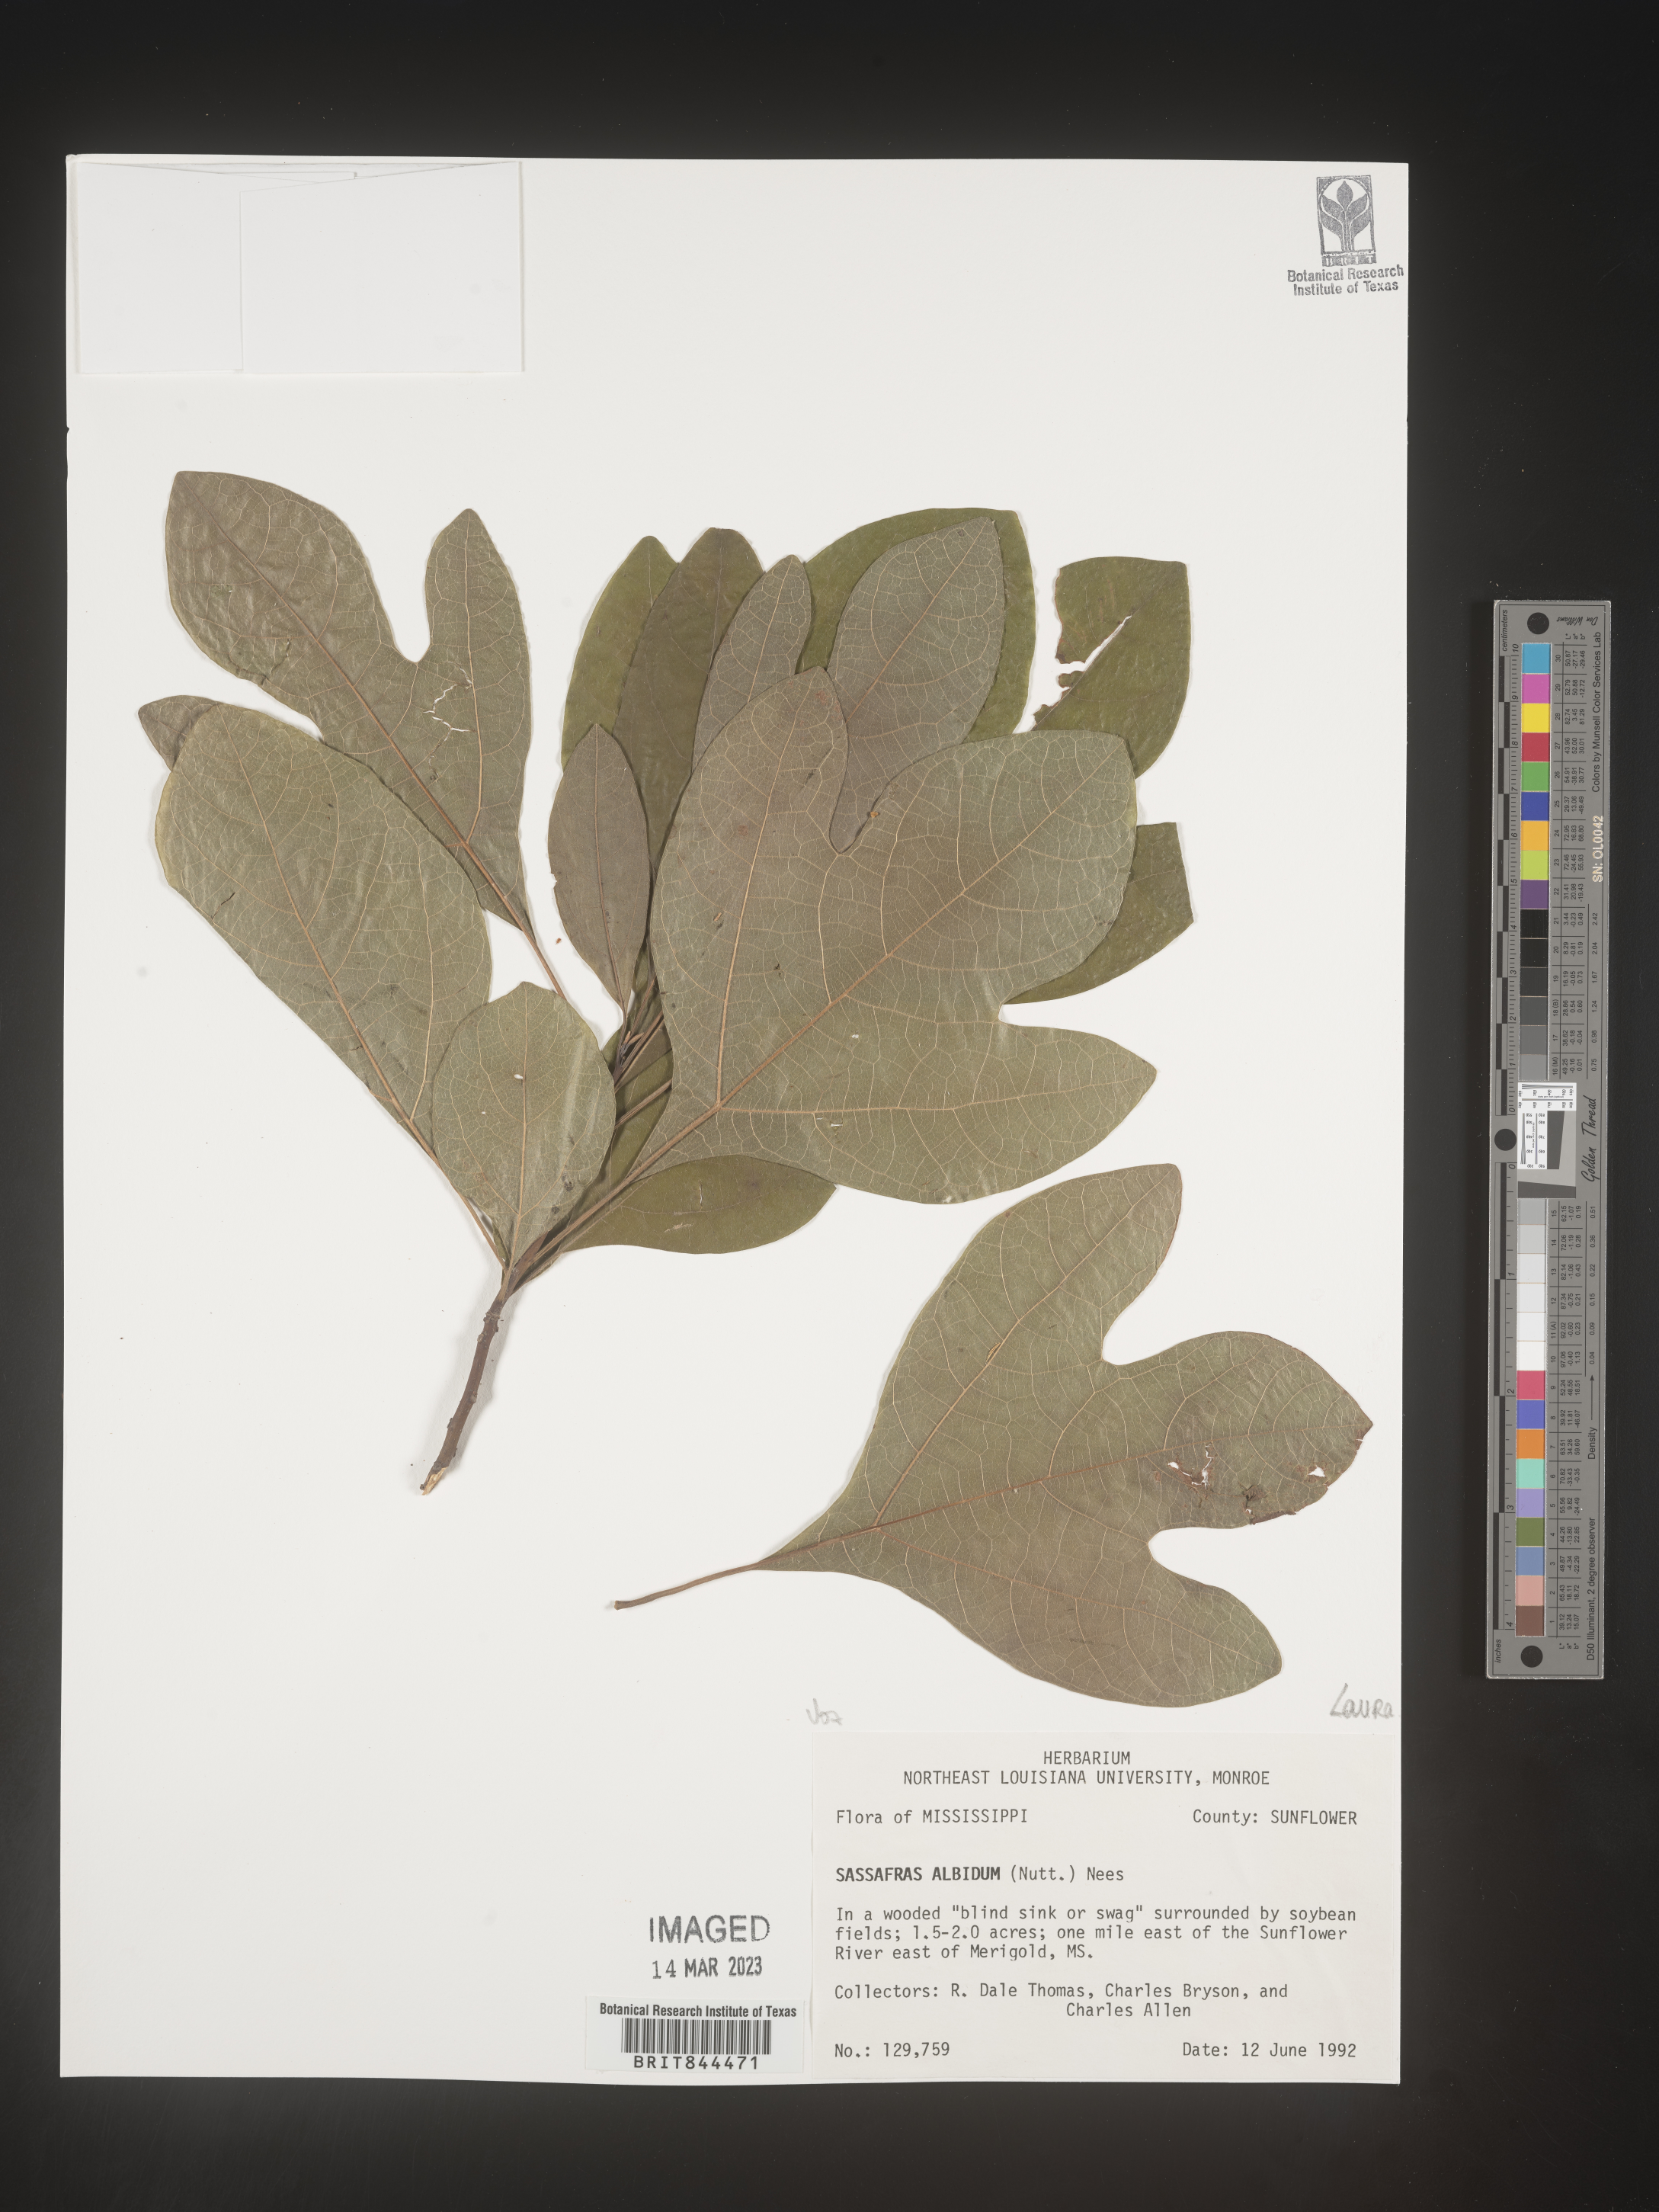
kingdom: Plantae
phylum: Tracheophyta
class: Magnoliopsida
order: Laurales
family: Lauraceae
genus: Sassafras
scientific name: Sassafras albidum
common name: Sassafras
